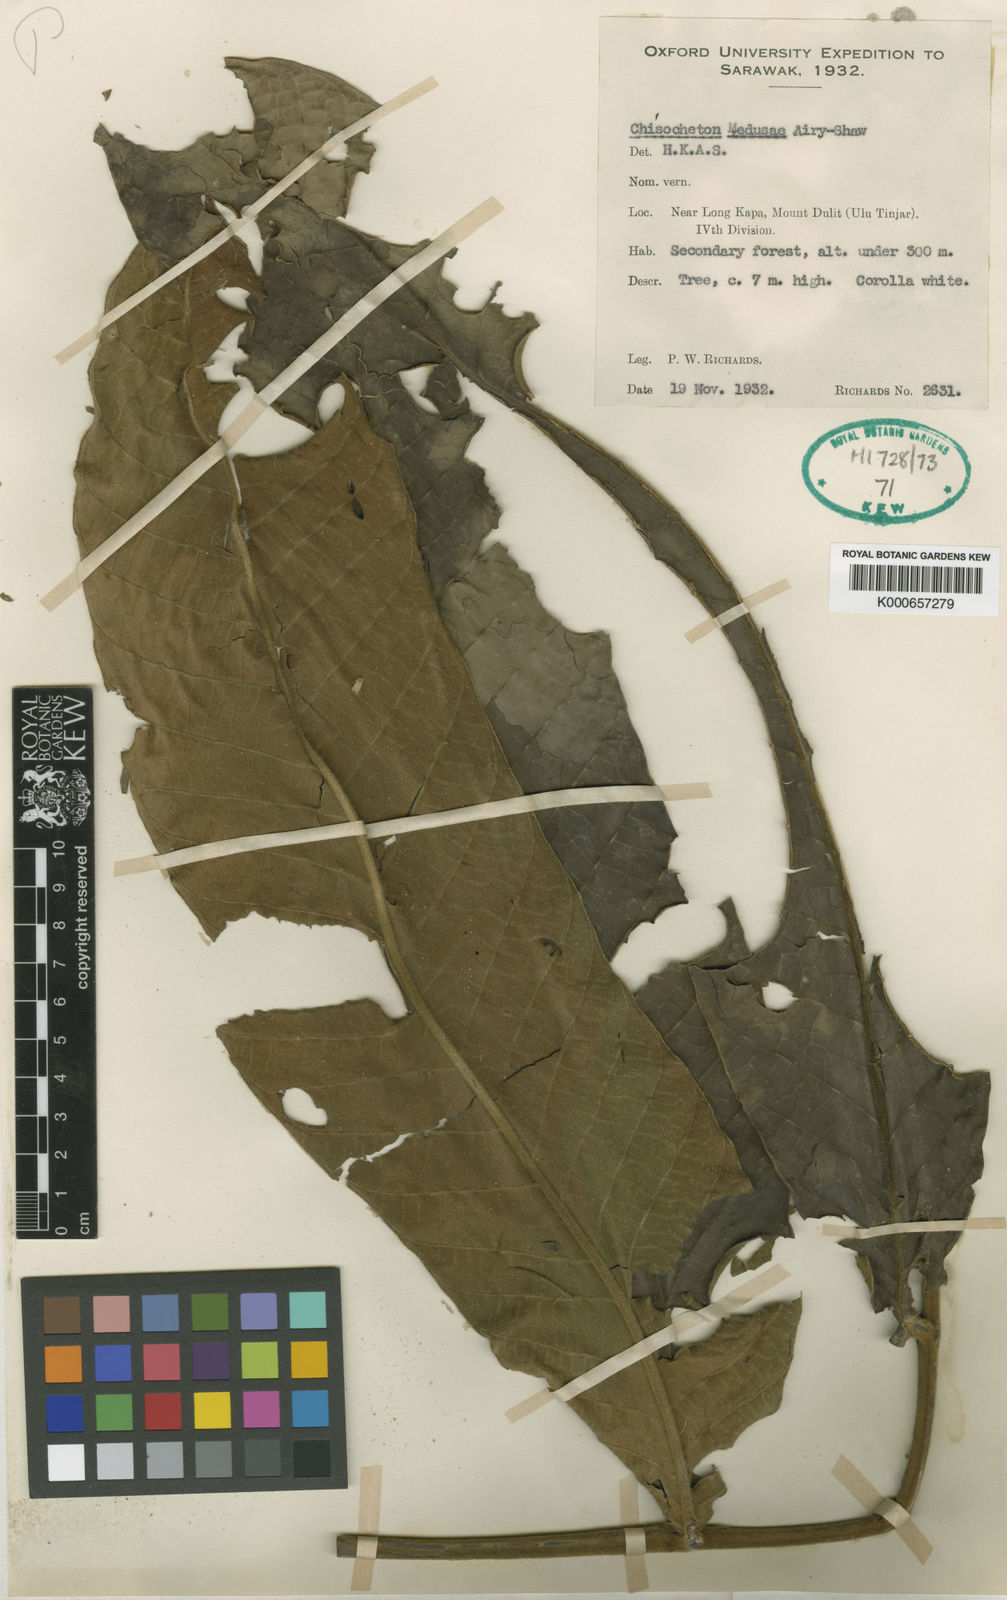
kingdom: Plantae
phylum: Tracheophyta
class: Magnoliopsida
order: Sapindales
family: Meliaceae
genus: Chisocheton
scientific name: Chisocheton medusae
